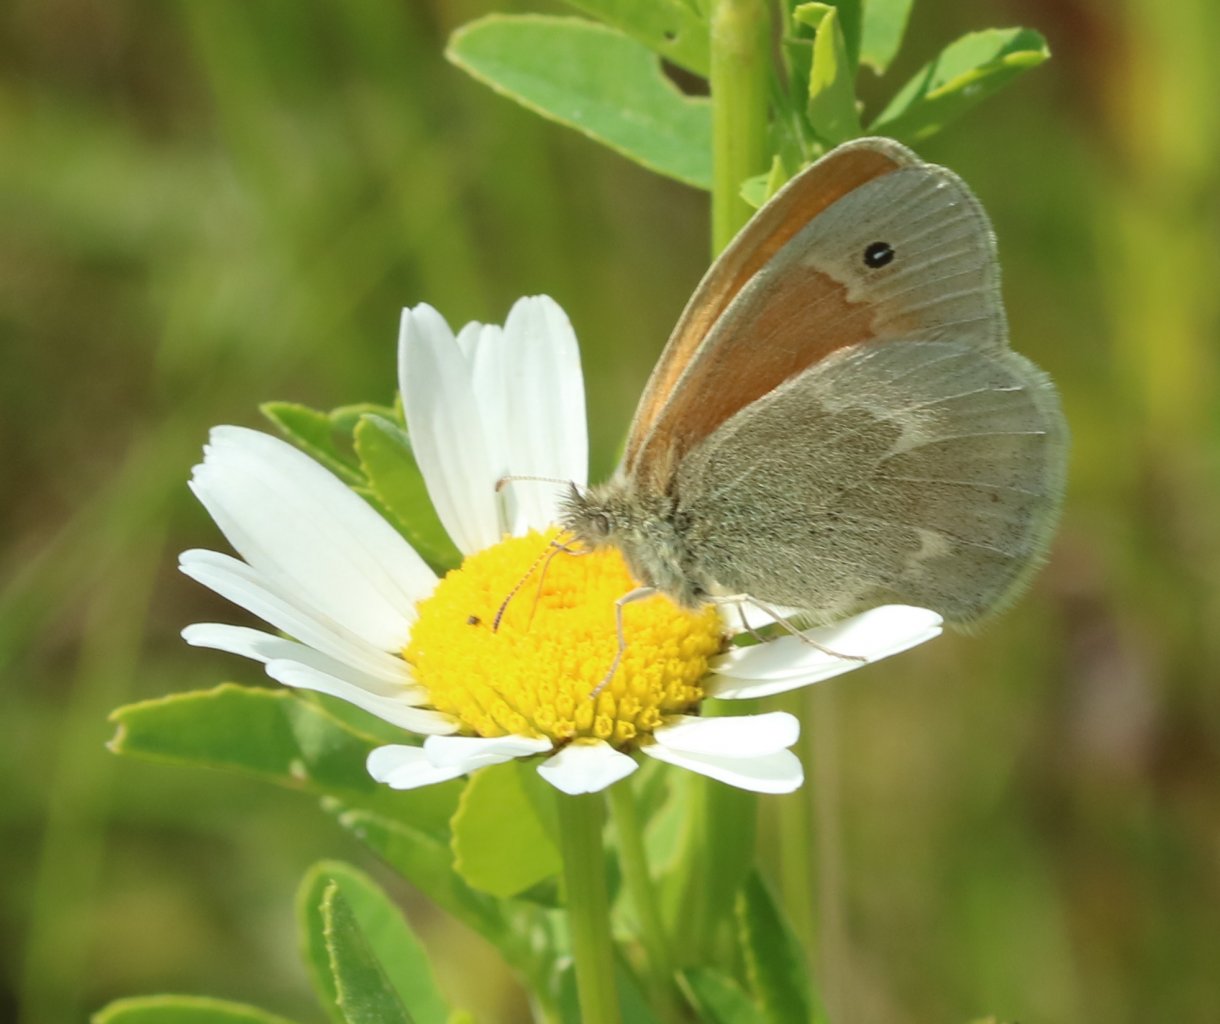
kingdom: Animalia
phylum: Arthropoda
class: Insecta
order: Lepidoptera
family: Nymphalidae
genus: Coenonympha
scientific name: Coenonympha tullia
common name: Large Heath
